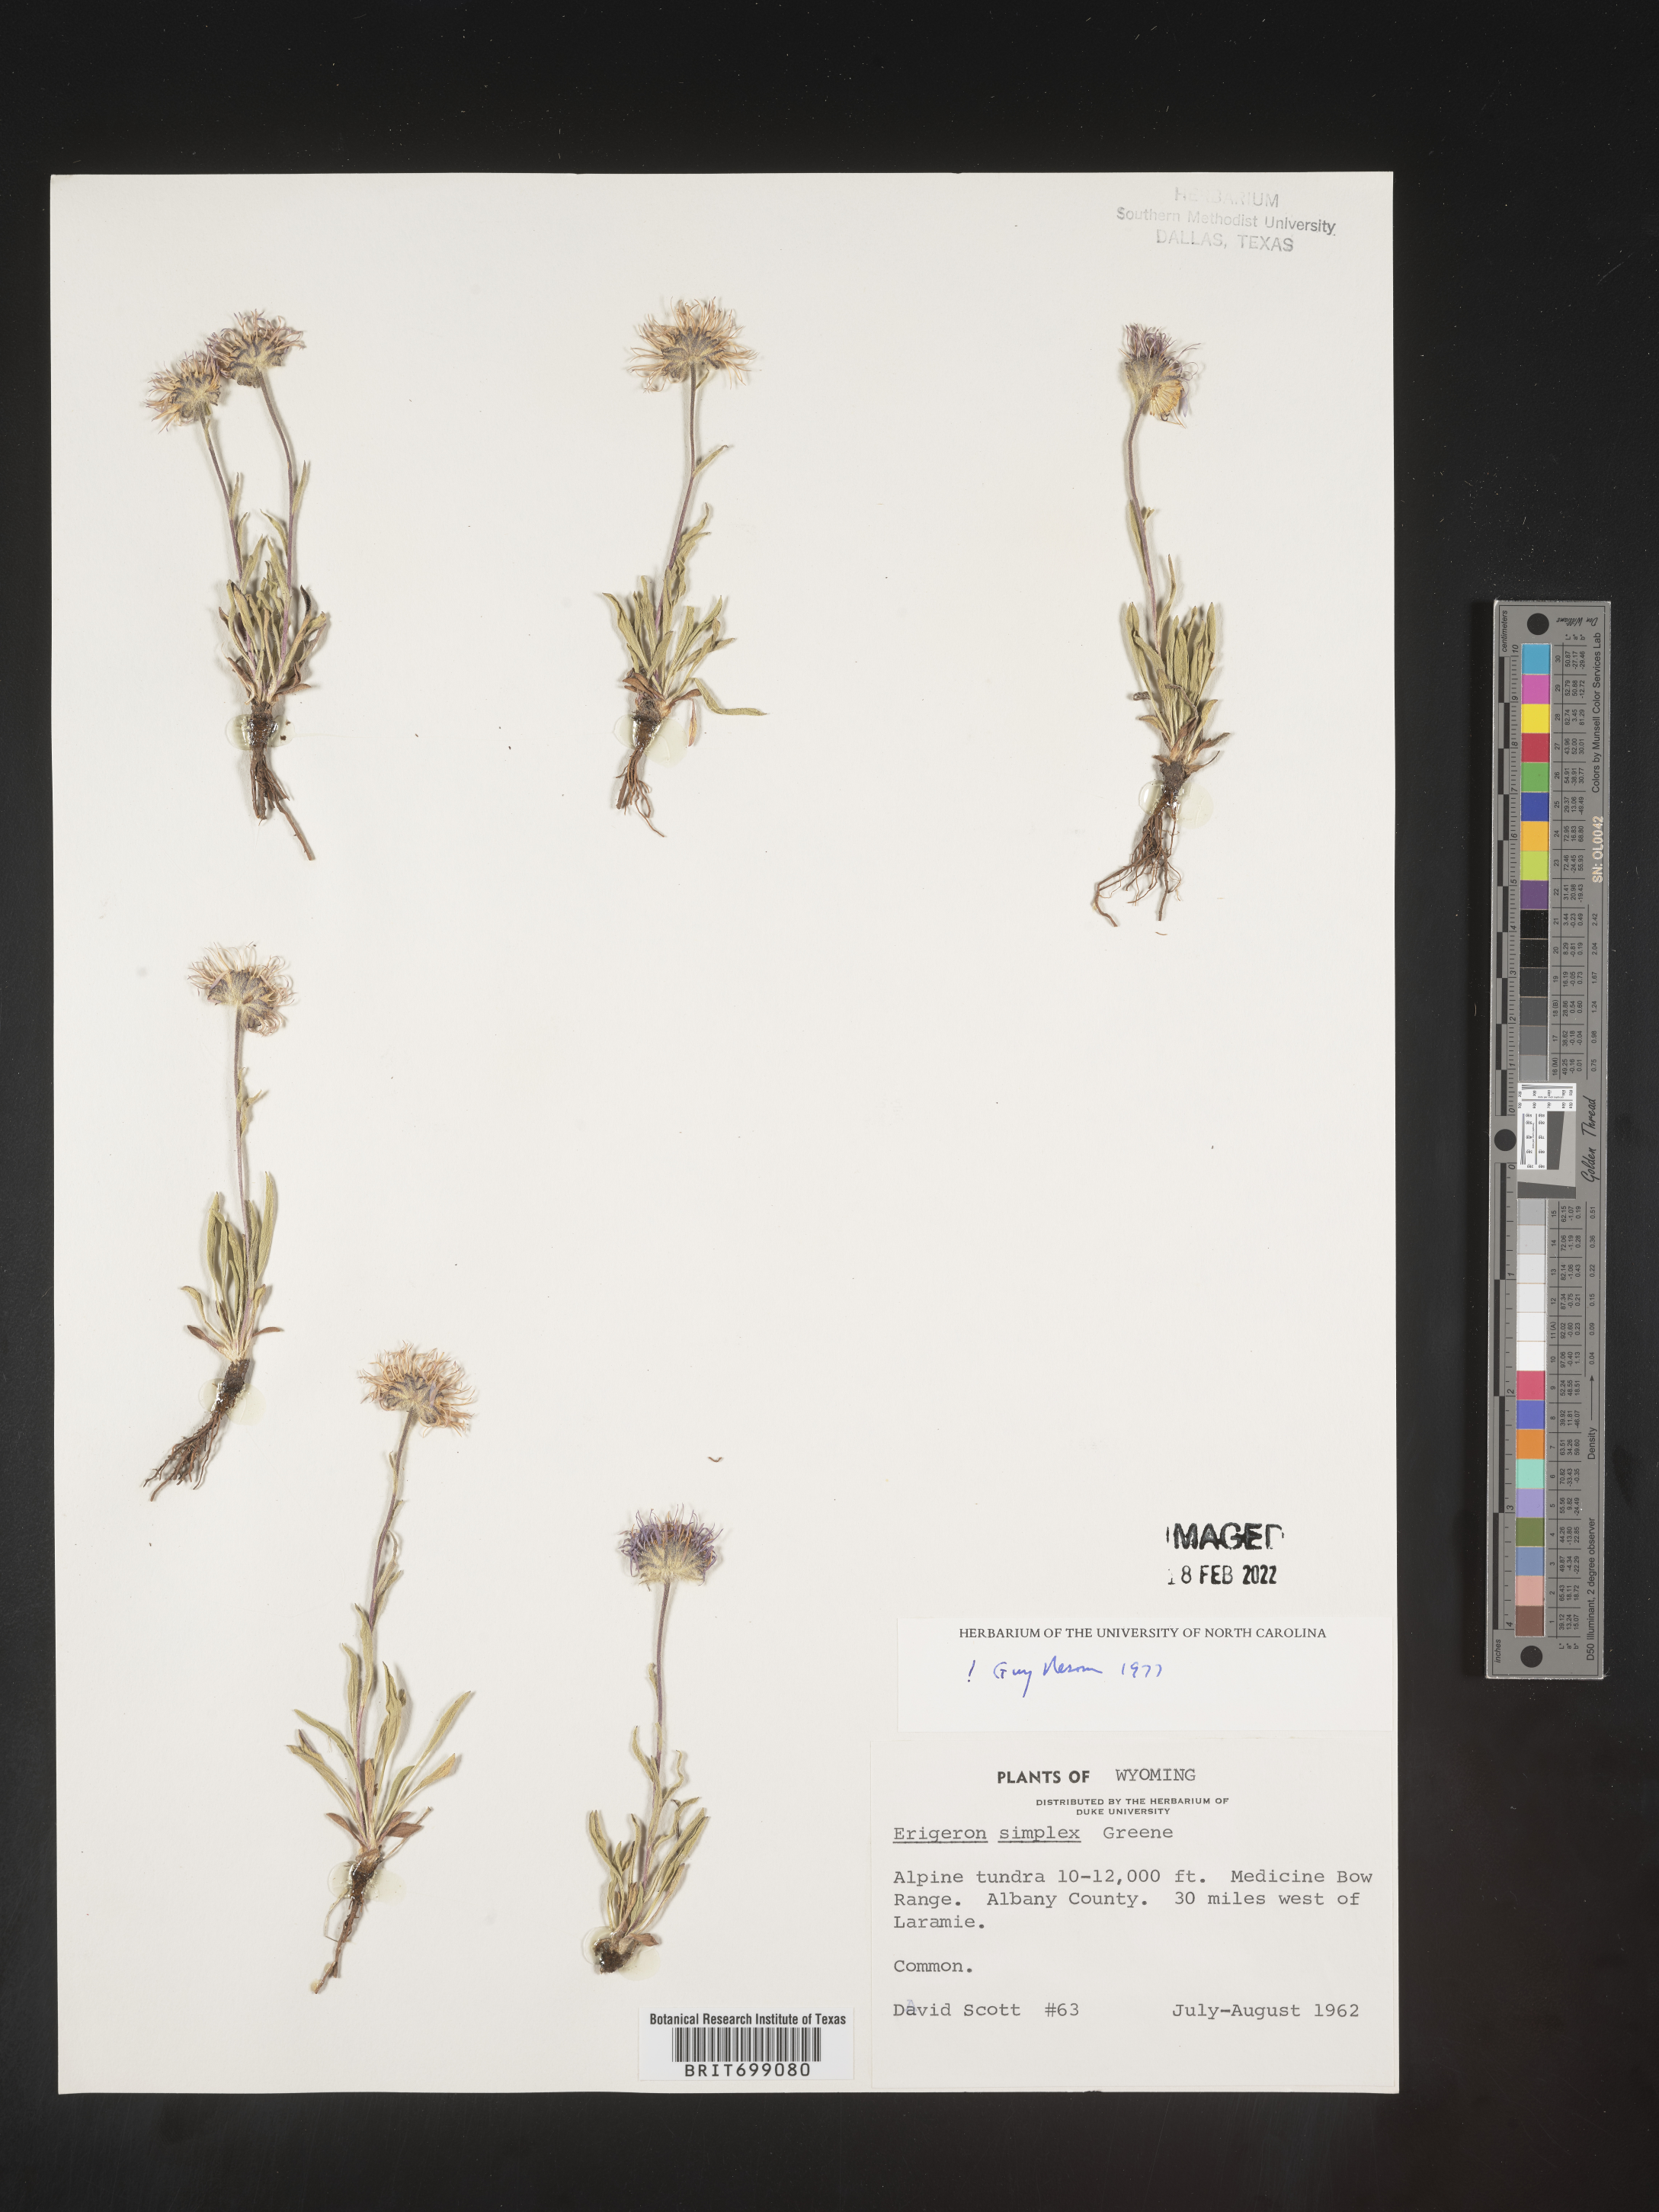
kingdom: Plantae
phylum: Tracheophyta
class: Magnoliopsida
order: Asterales
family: Asteraceae
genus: Erigeron
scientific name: Erigeron caucasicus
